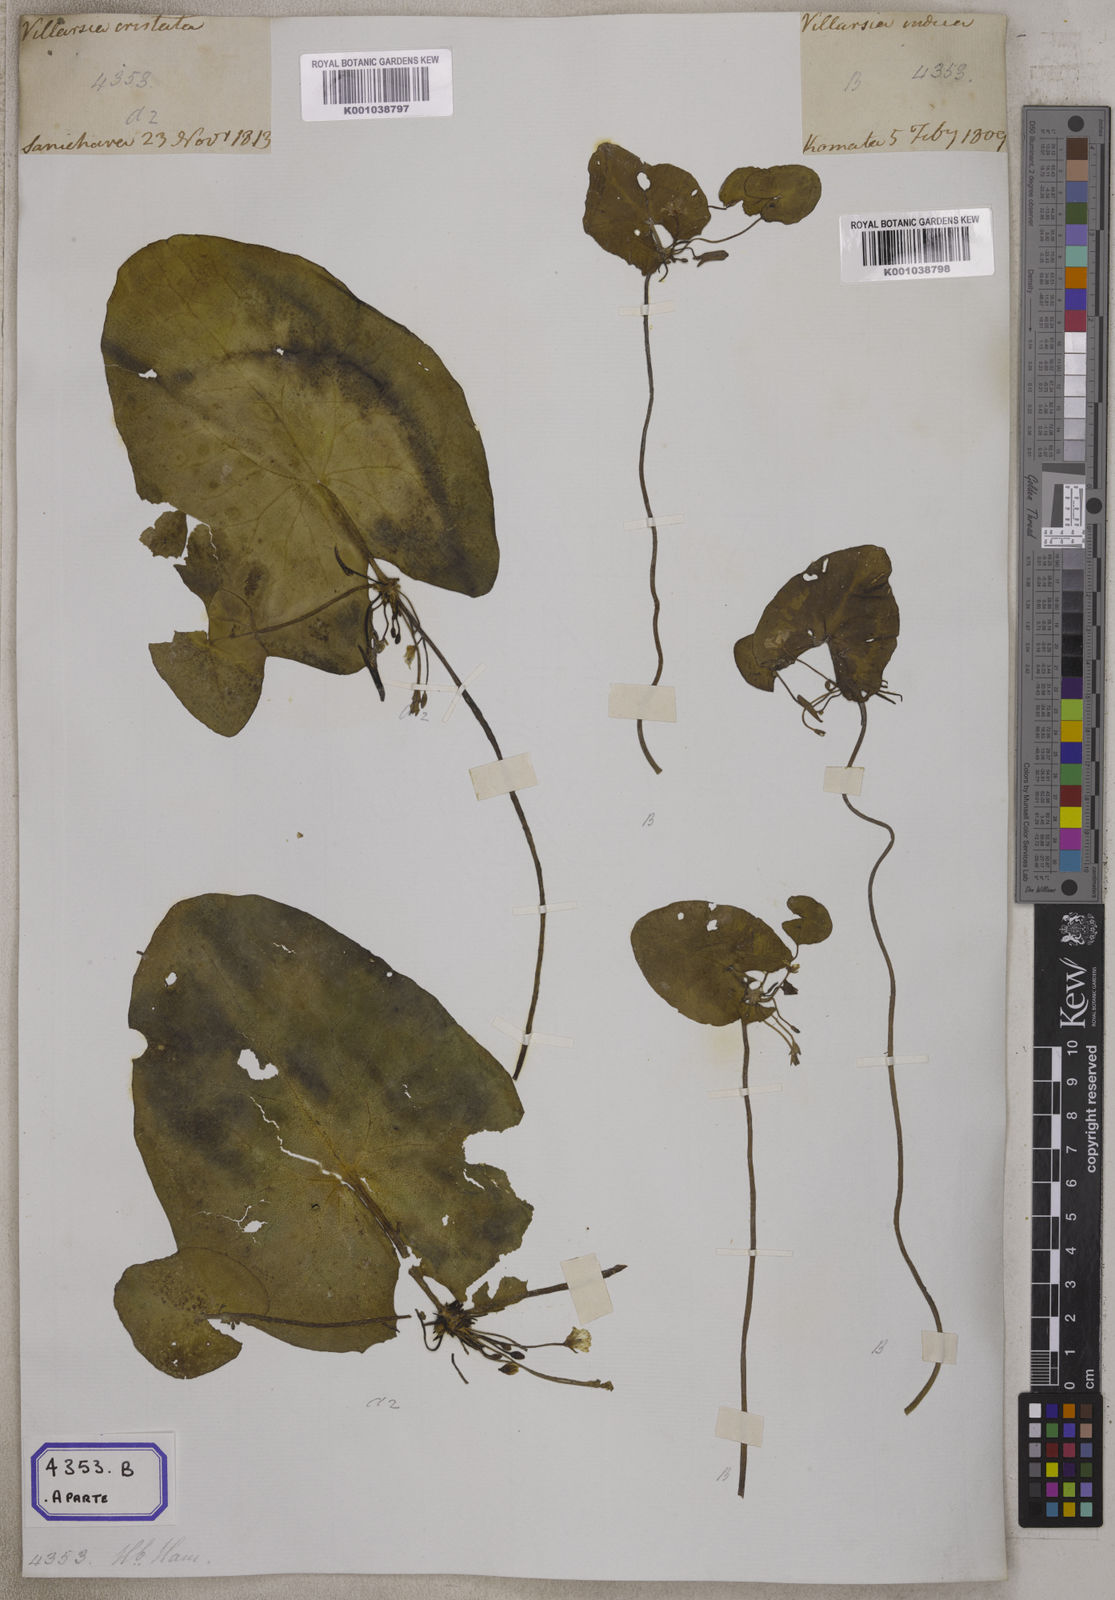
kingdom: Plantae
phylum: Tracheophyta
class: Magnoliopsida
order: Asterales
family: Menyanthaceae
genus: Nymphoides
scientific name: Nymphoides hydrophylla
